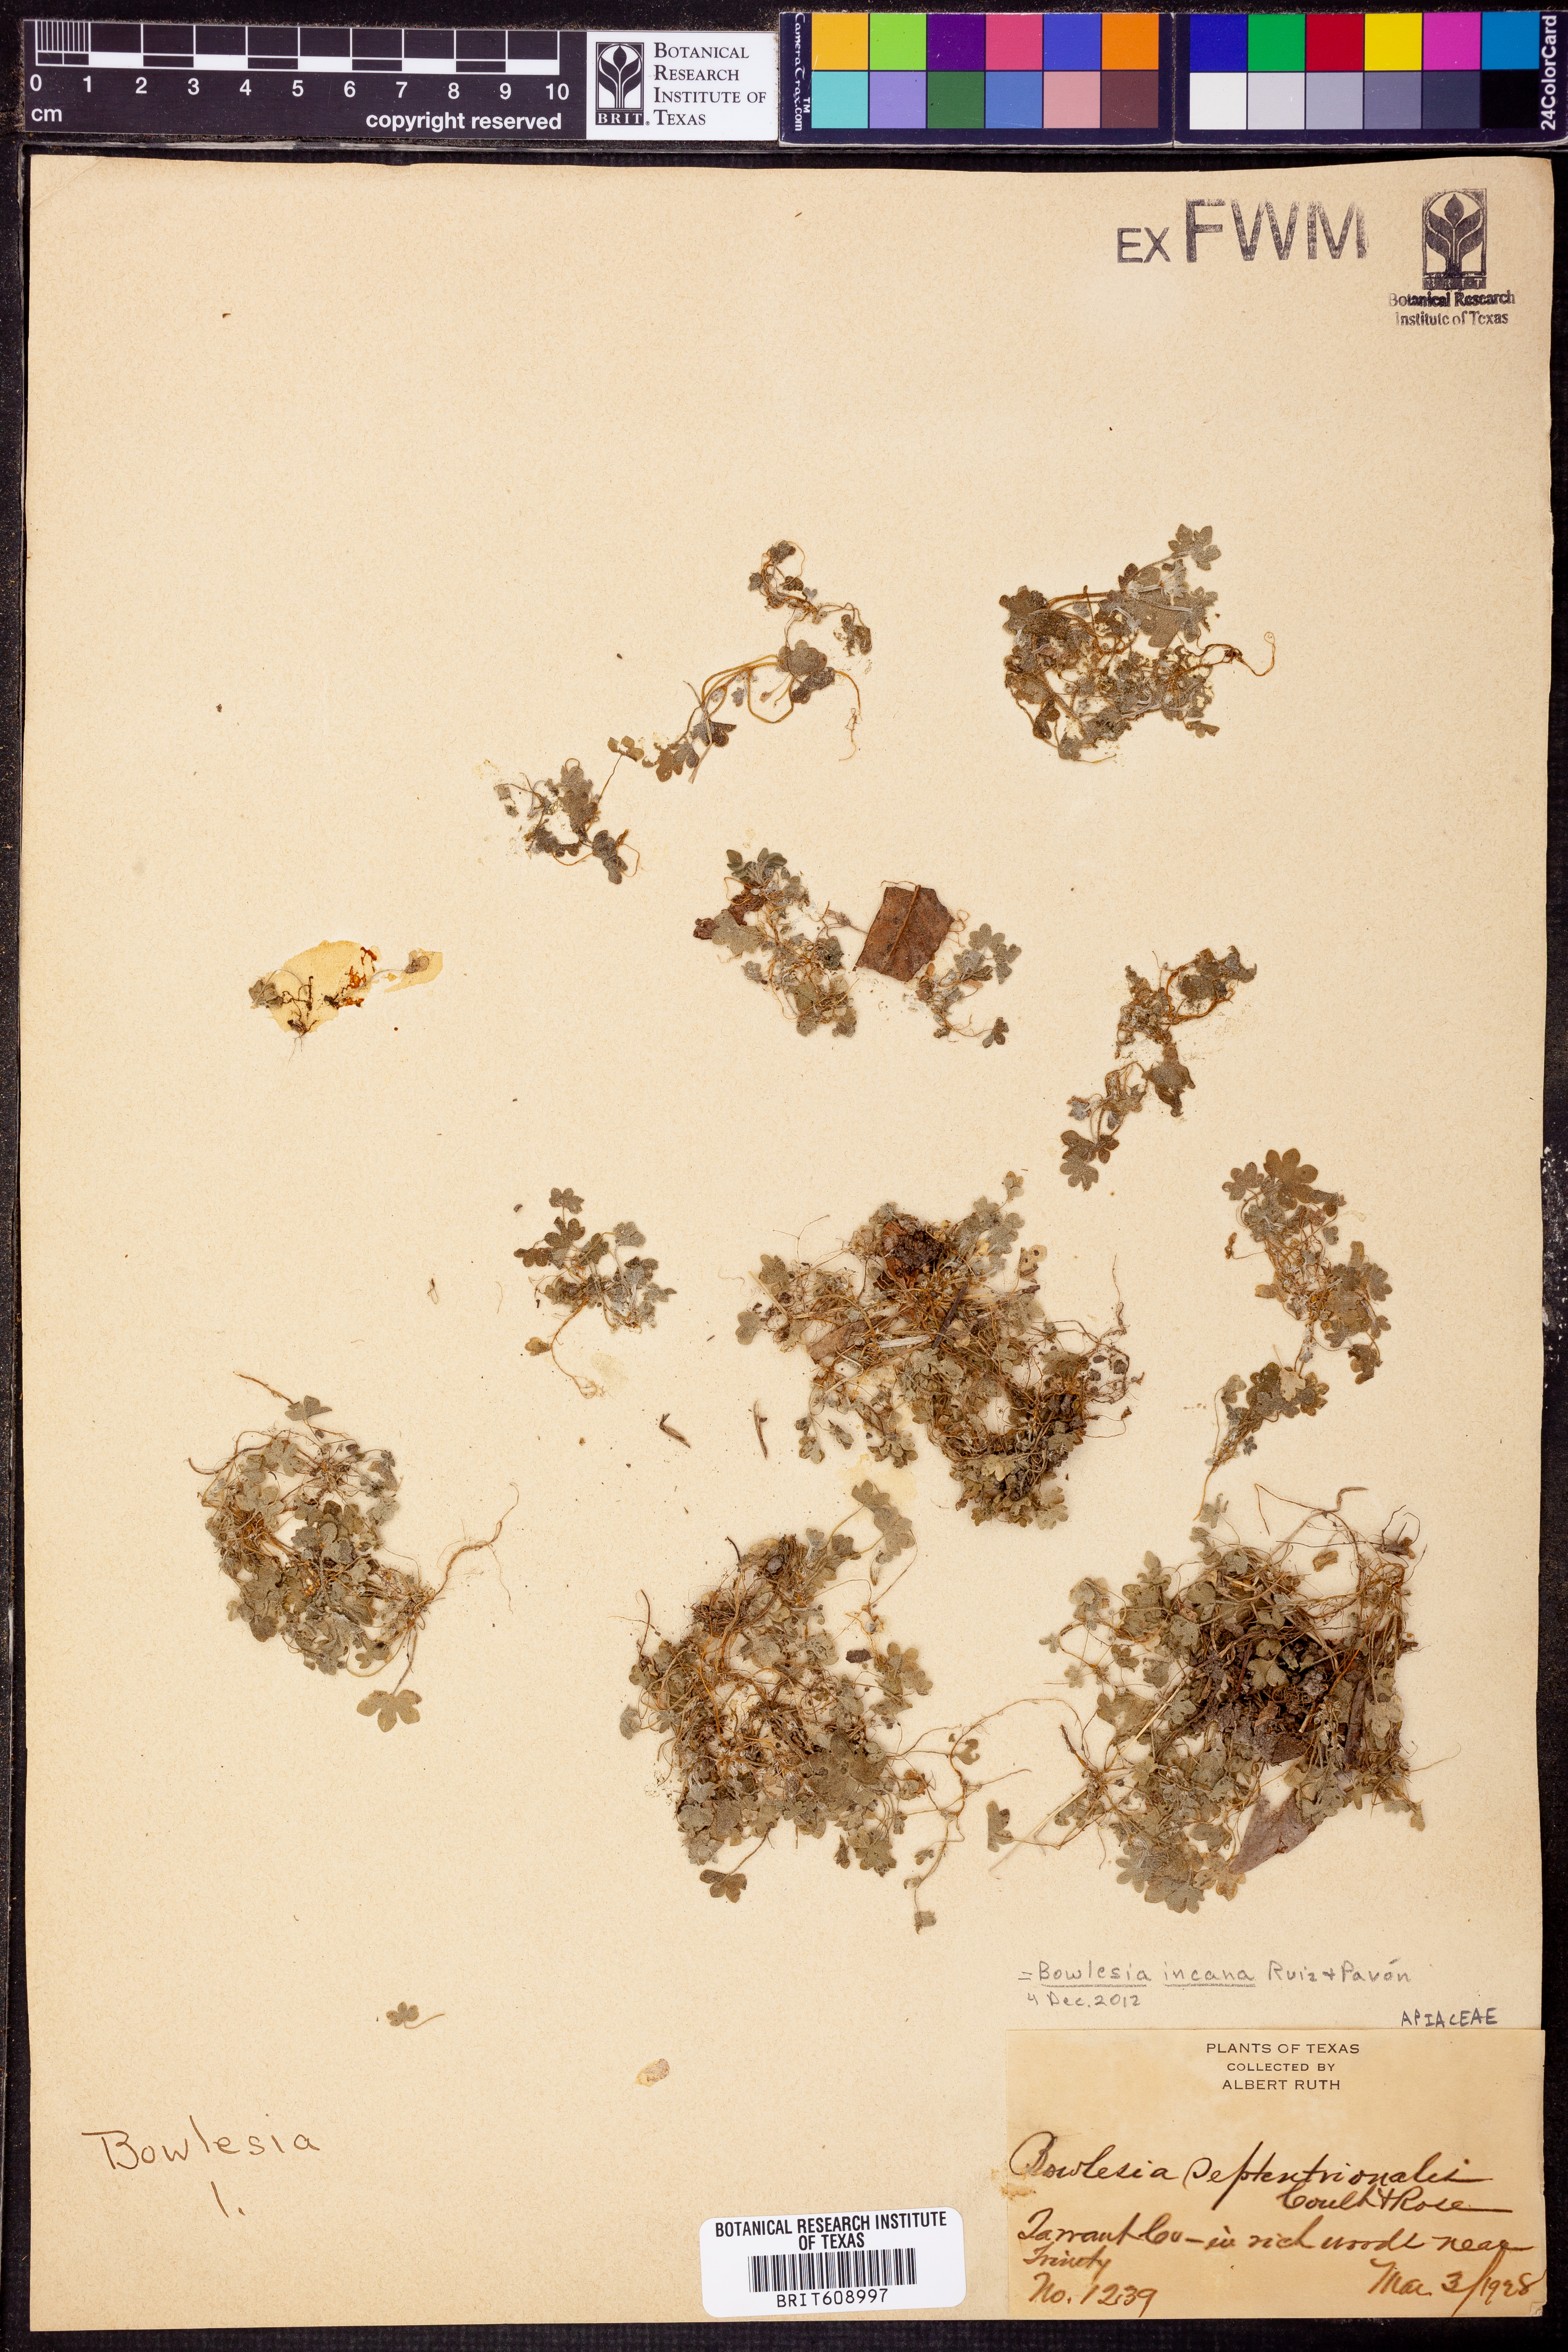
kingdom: Plantae
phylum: Tracheophyta
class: Magnoliopsida
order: Apiales
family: Apiaceae
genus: Bowlesia
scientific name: Bowlesia incana
